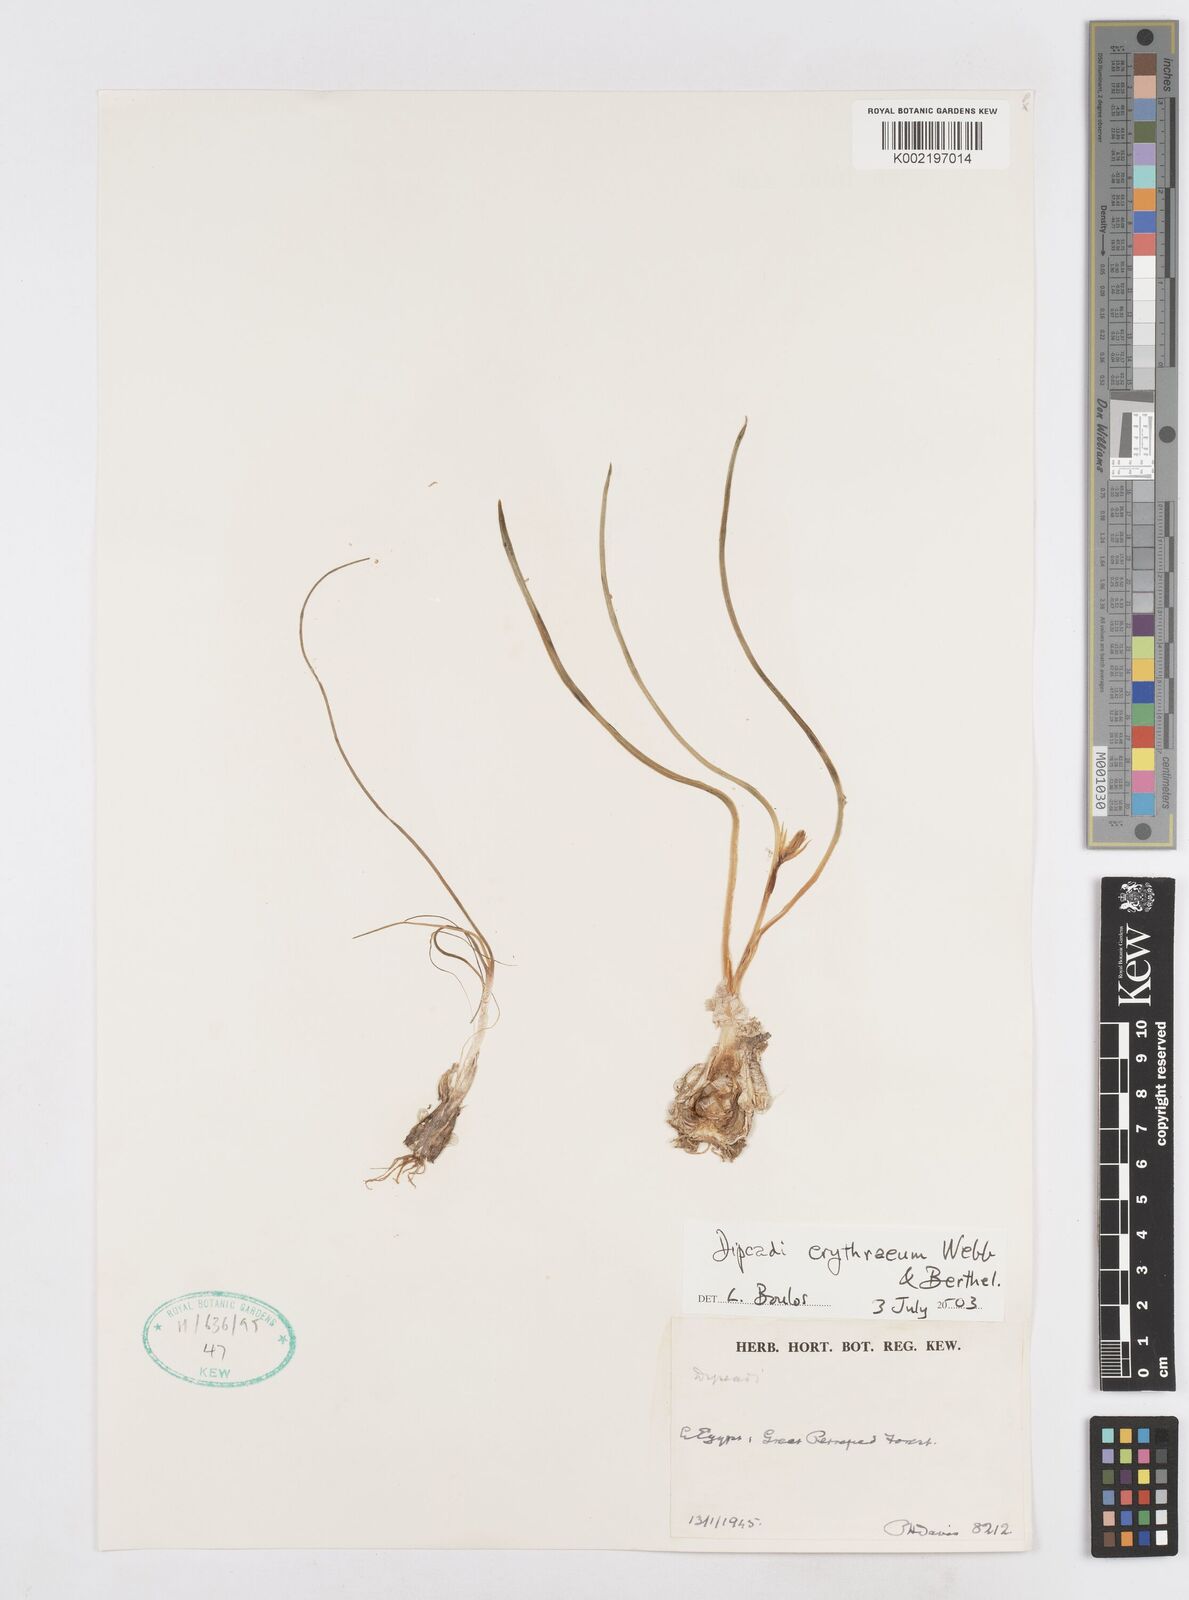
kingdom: Plantae
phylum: Tracheophyta
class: Liliopsida
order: Asparagales
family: Asparagaceae
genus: Dipcadi
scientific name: Dipcadi erythraeum
